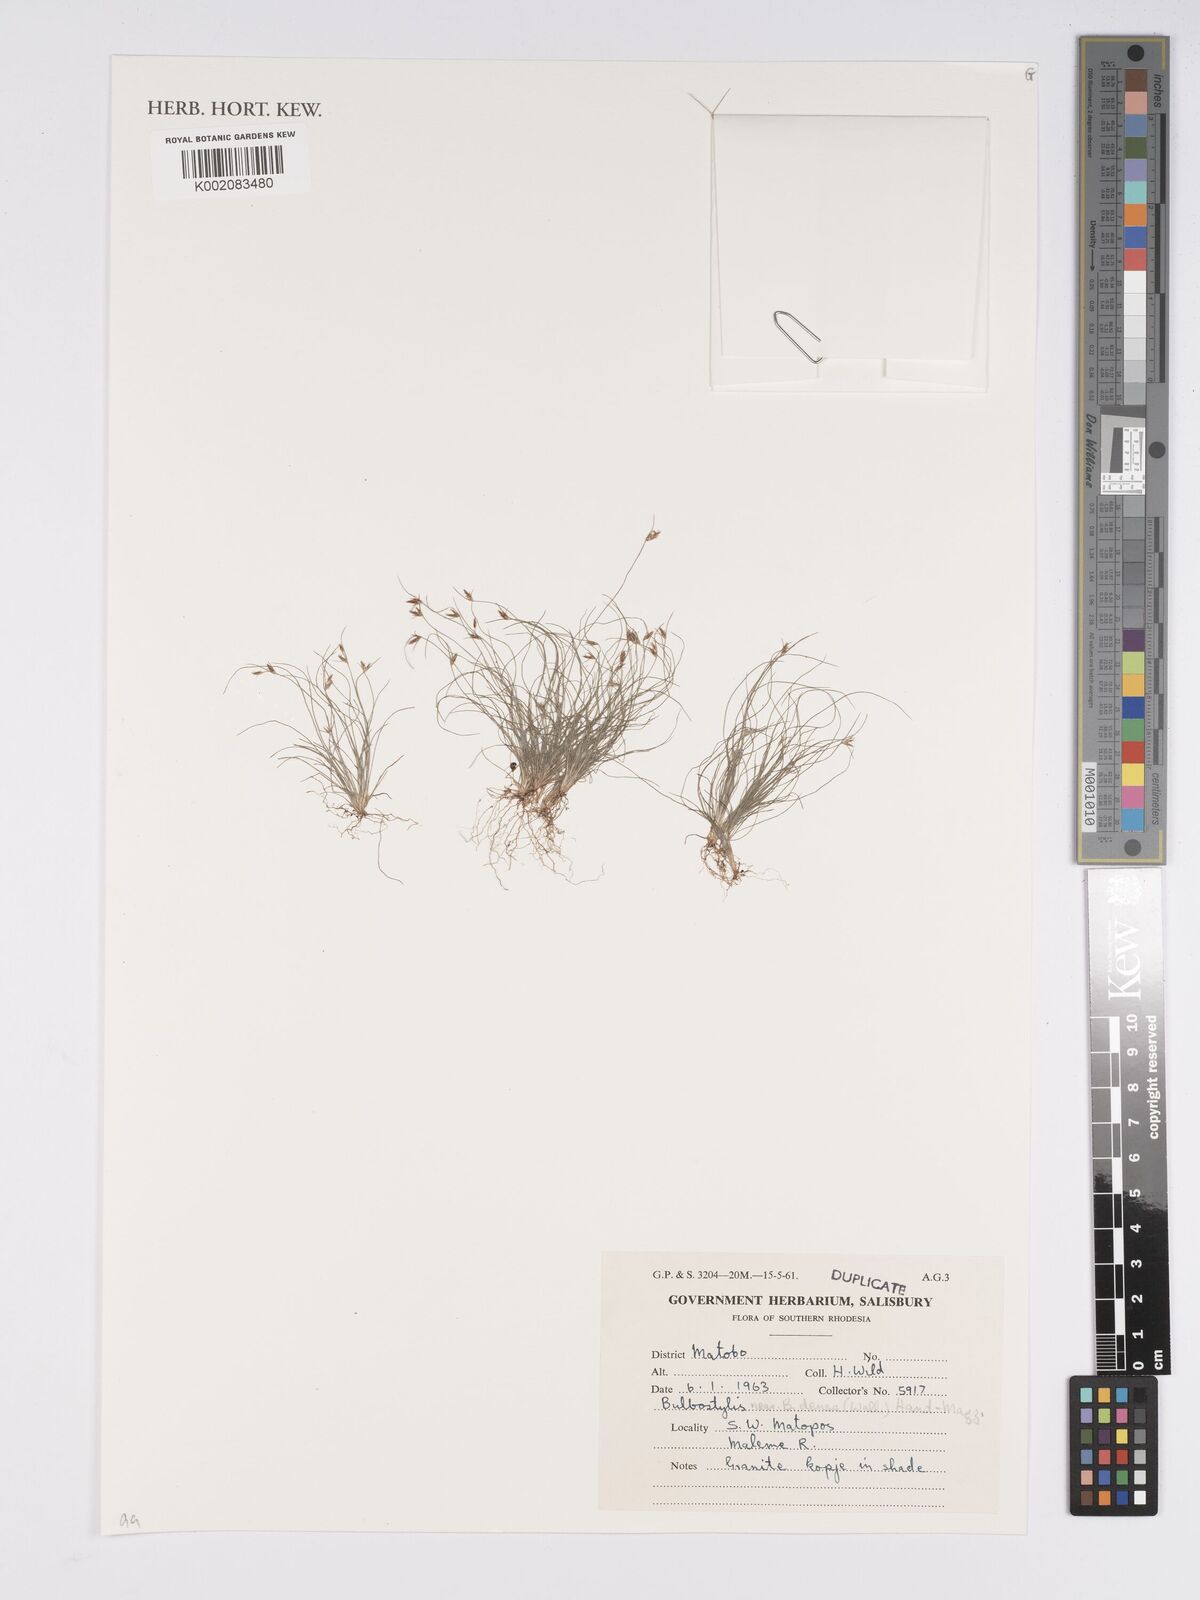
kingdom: Plantae
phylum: Tracheophyta
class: Liliopsida
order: Poales
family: Cyperaceae
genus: Bulbostylis
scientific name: Bulbostylis densa
